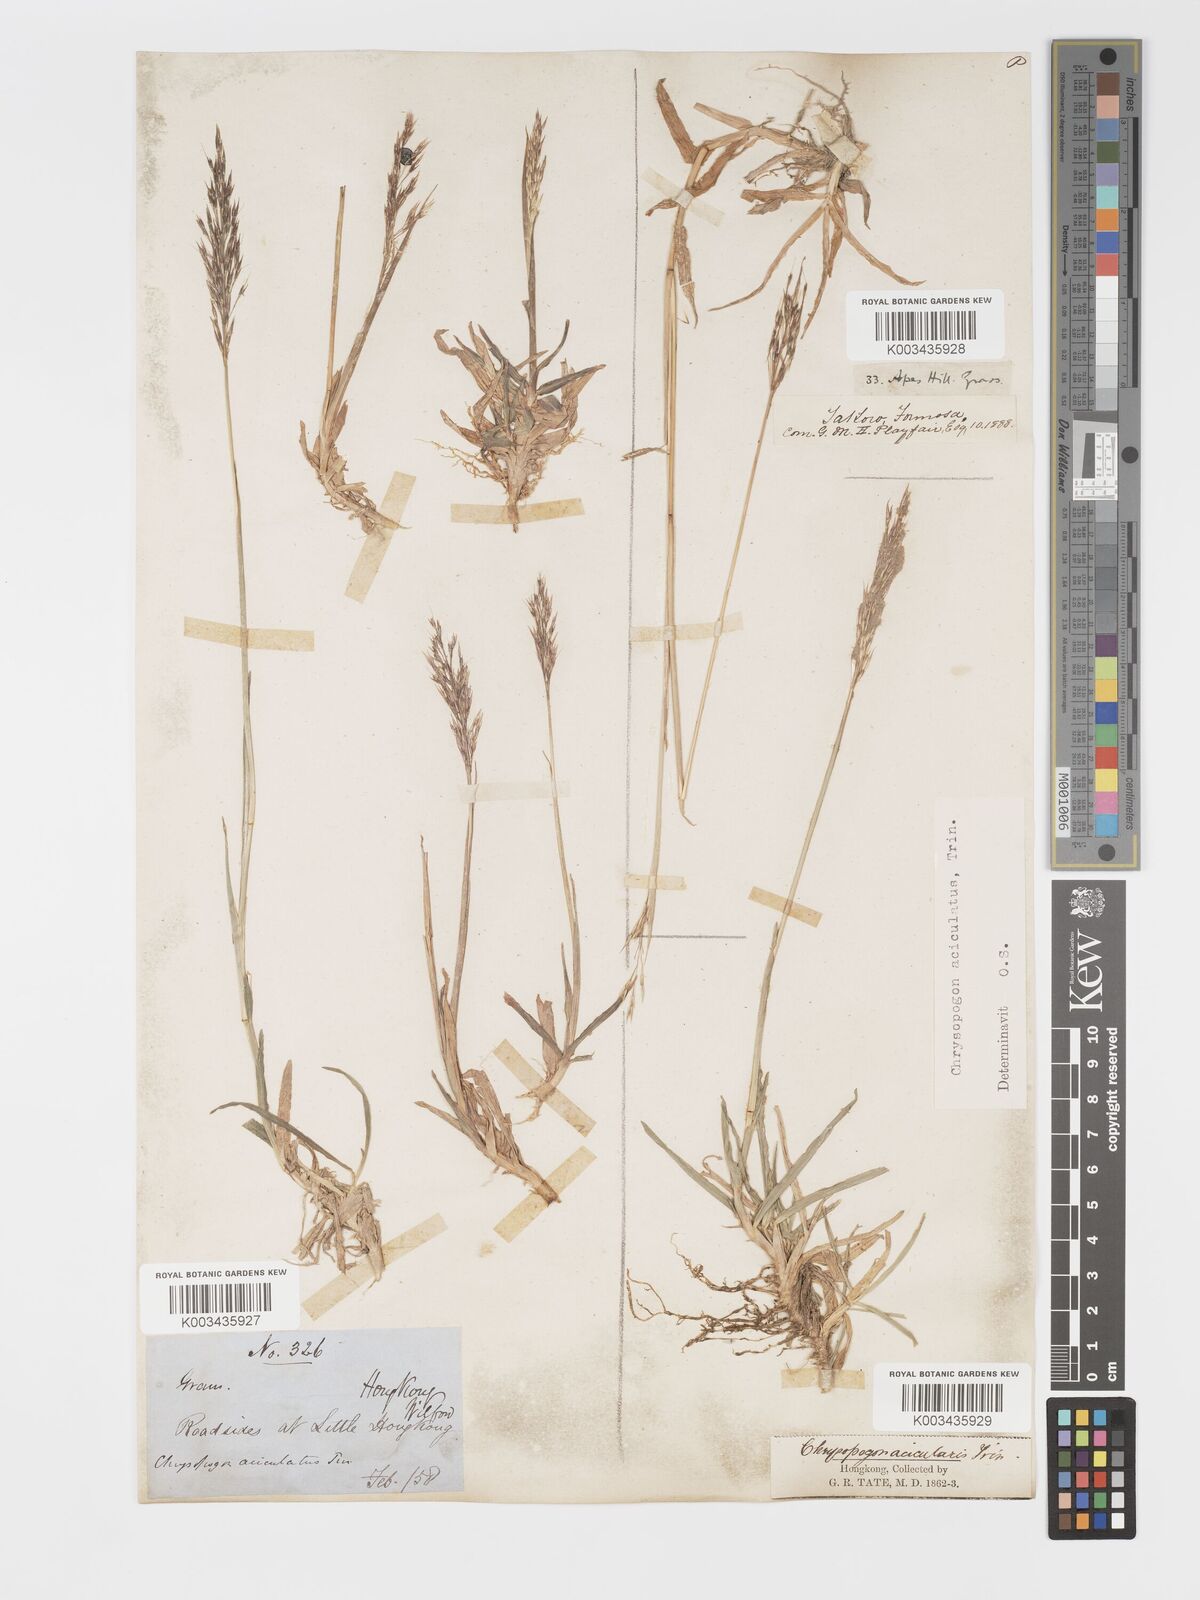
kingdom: Plantae
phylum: Tracheophyta
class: Liliopsida
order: Poales
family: Poaceae
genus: Chrysopogon
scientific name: Chrysopogon aciculatus
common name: Pilipiliula
